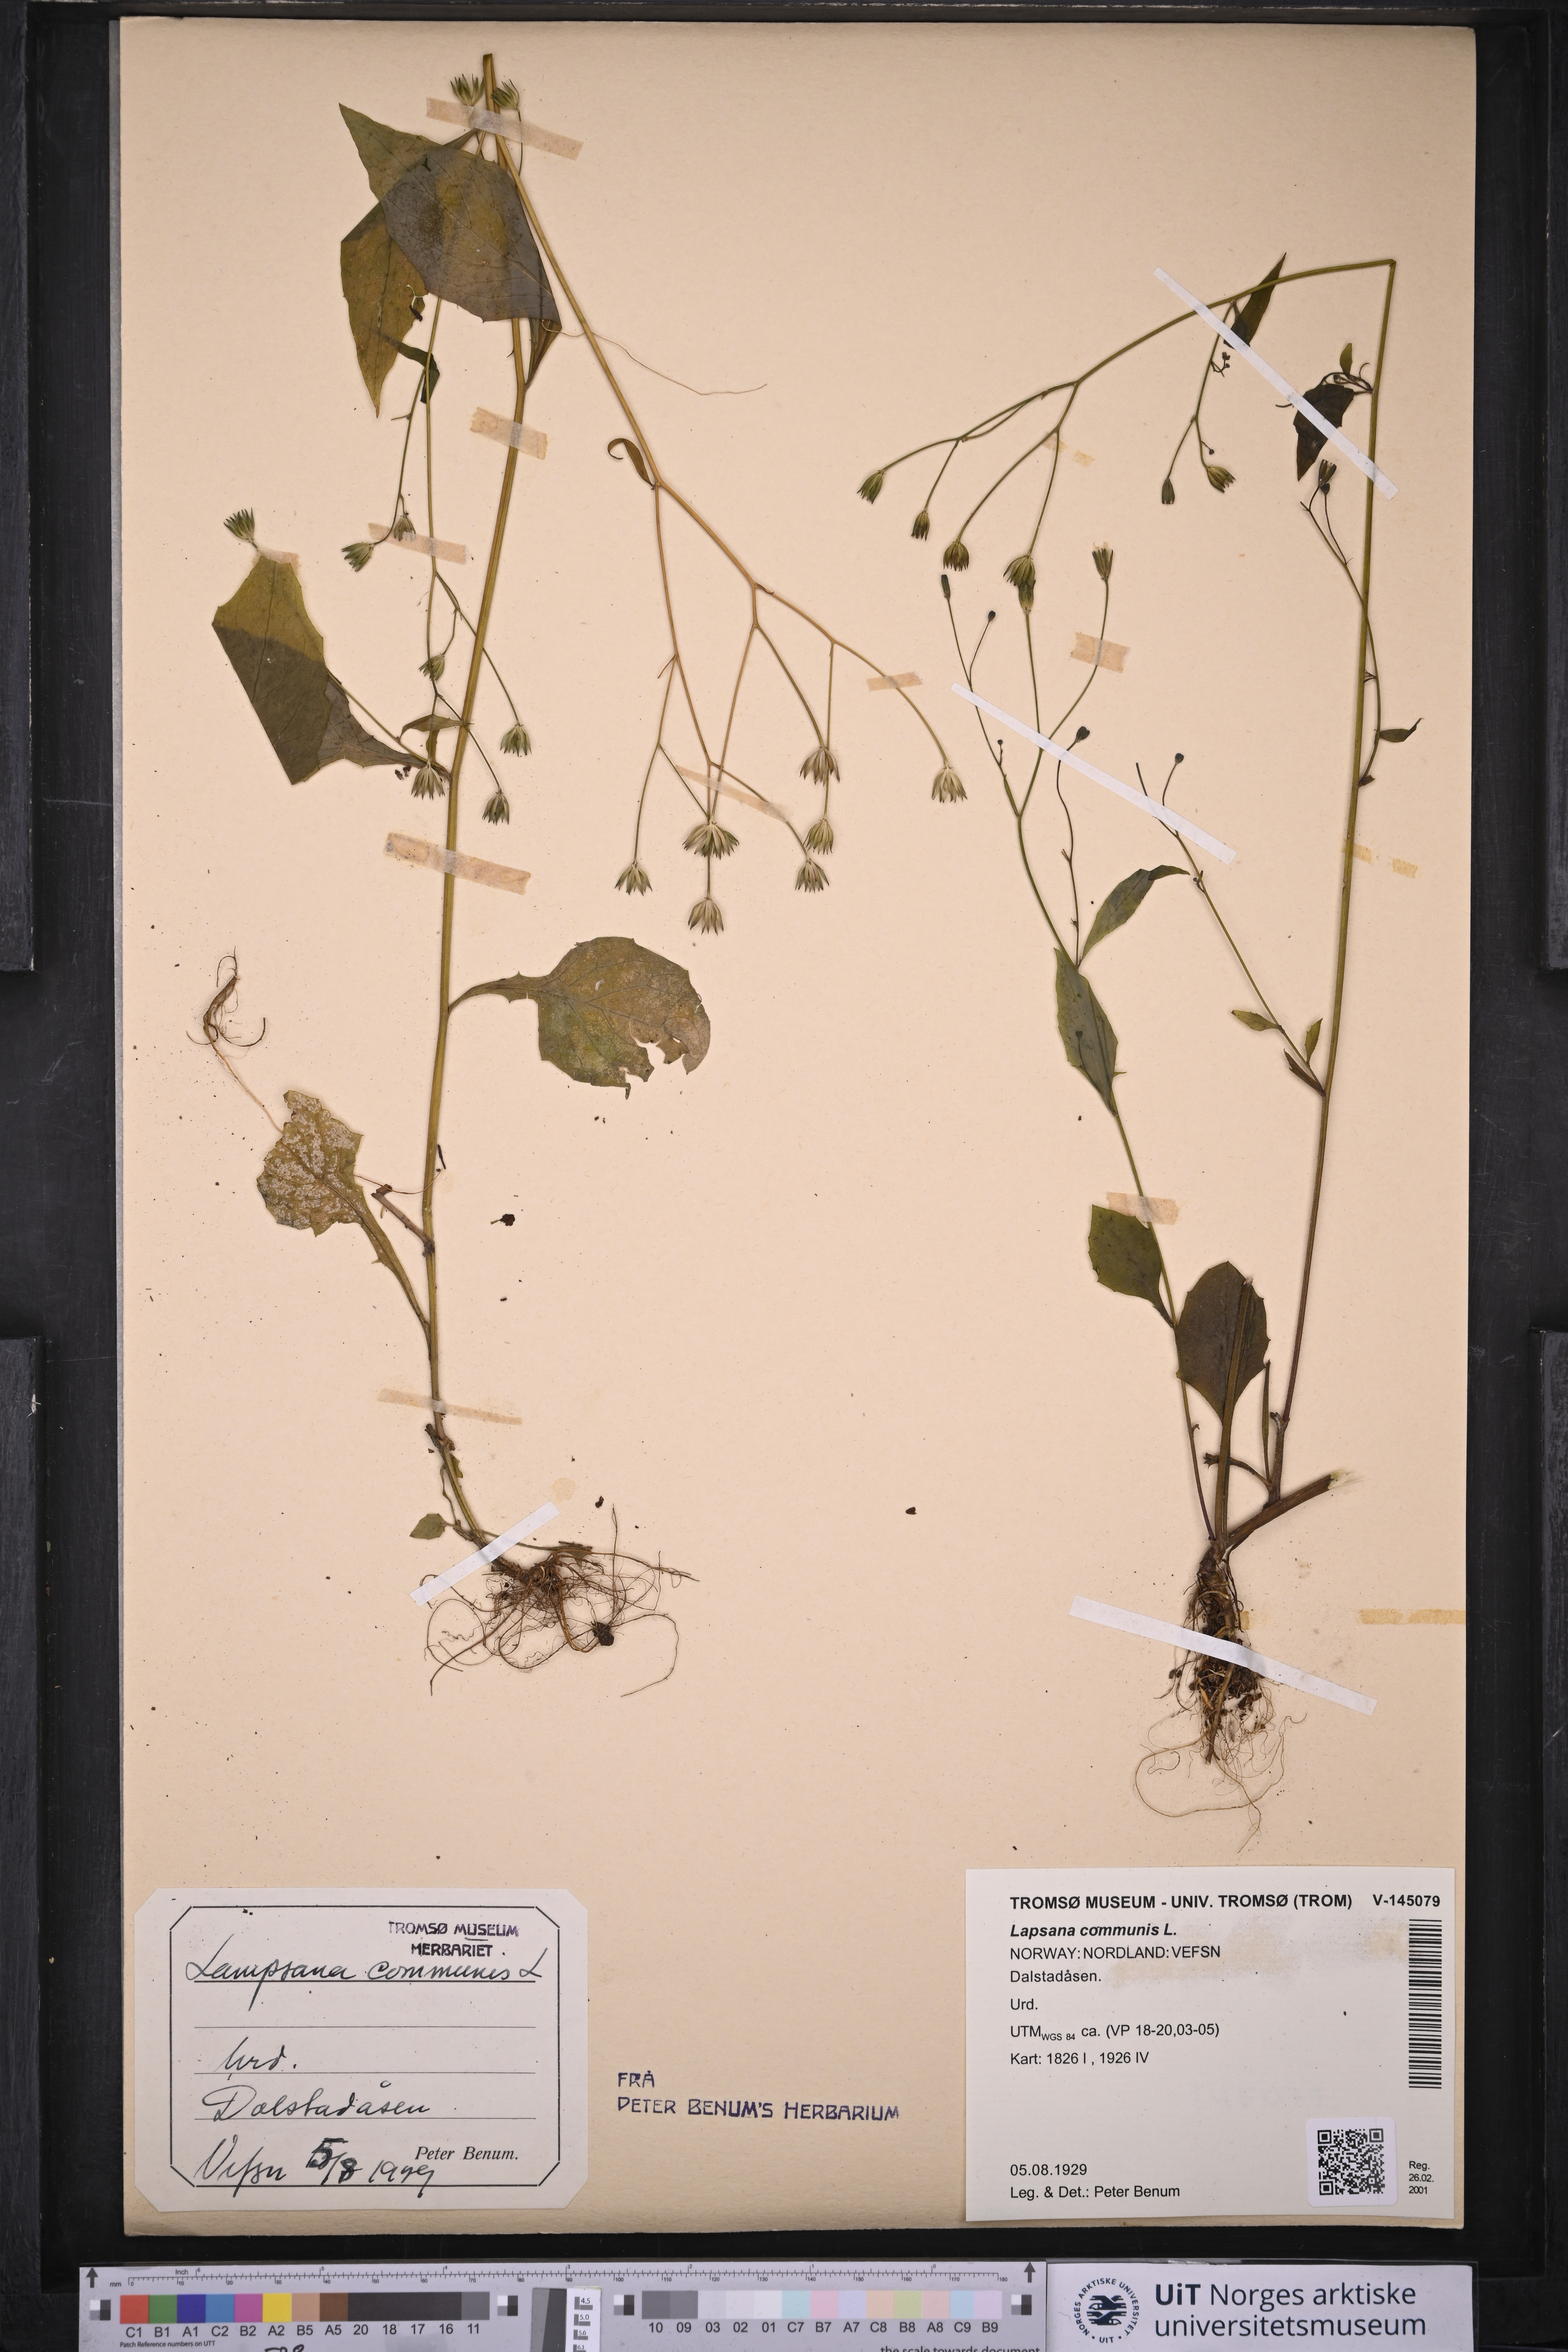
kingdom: Plantae
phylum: Tracheophyta
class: Magnoliopsida
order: Asterales
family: Asteraceae
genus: Lapsana
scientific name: Lapsana communis
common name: Nipplewort
